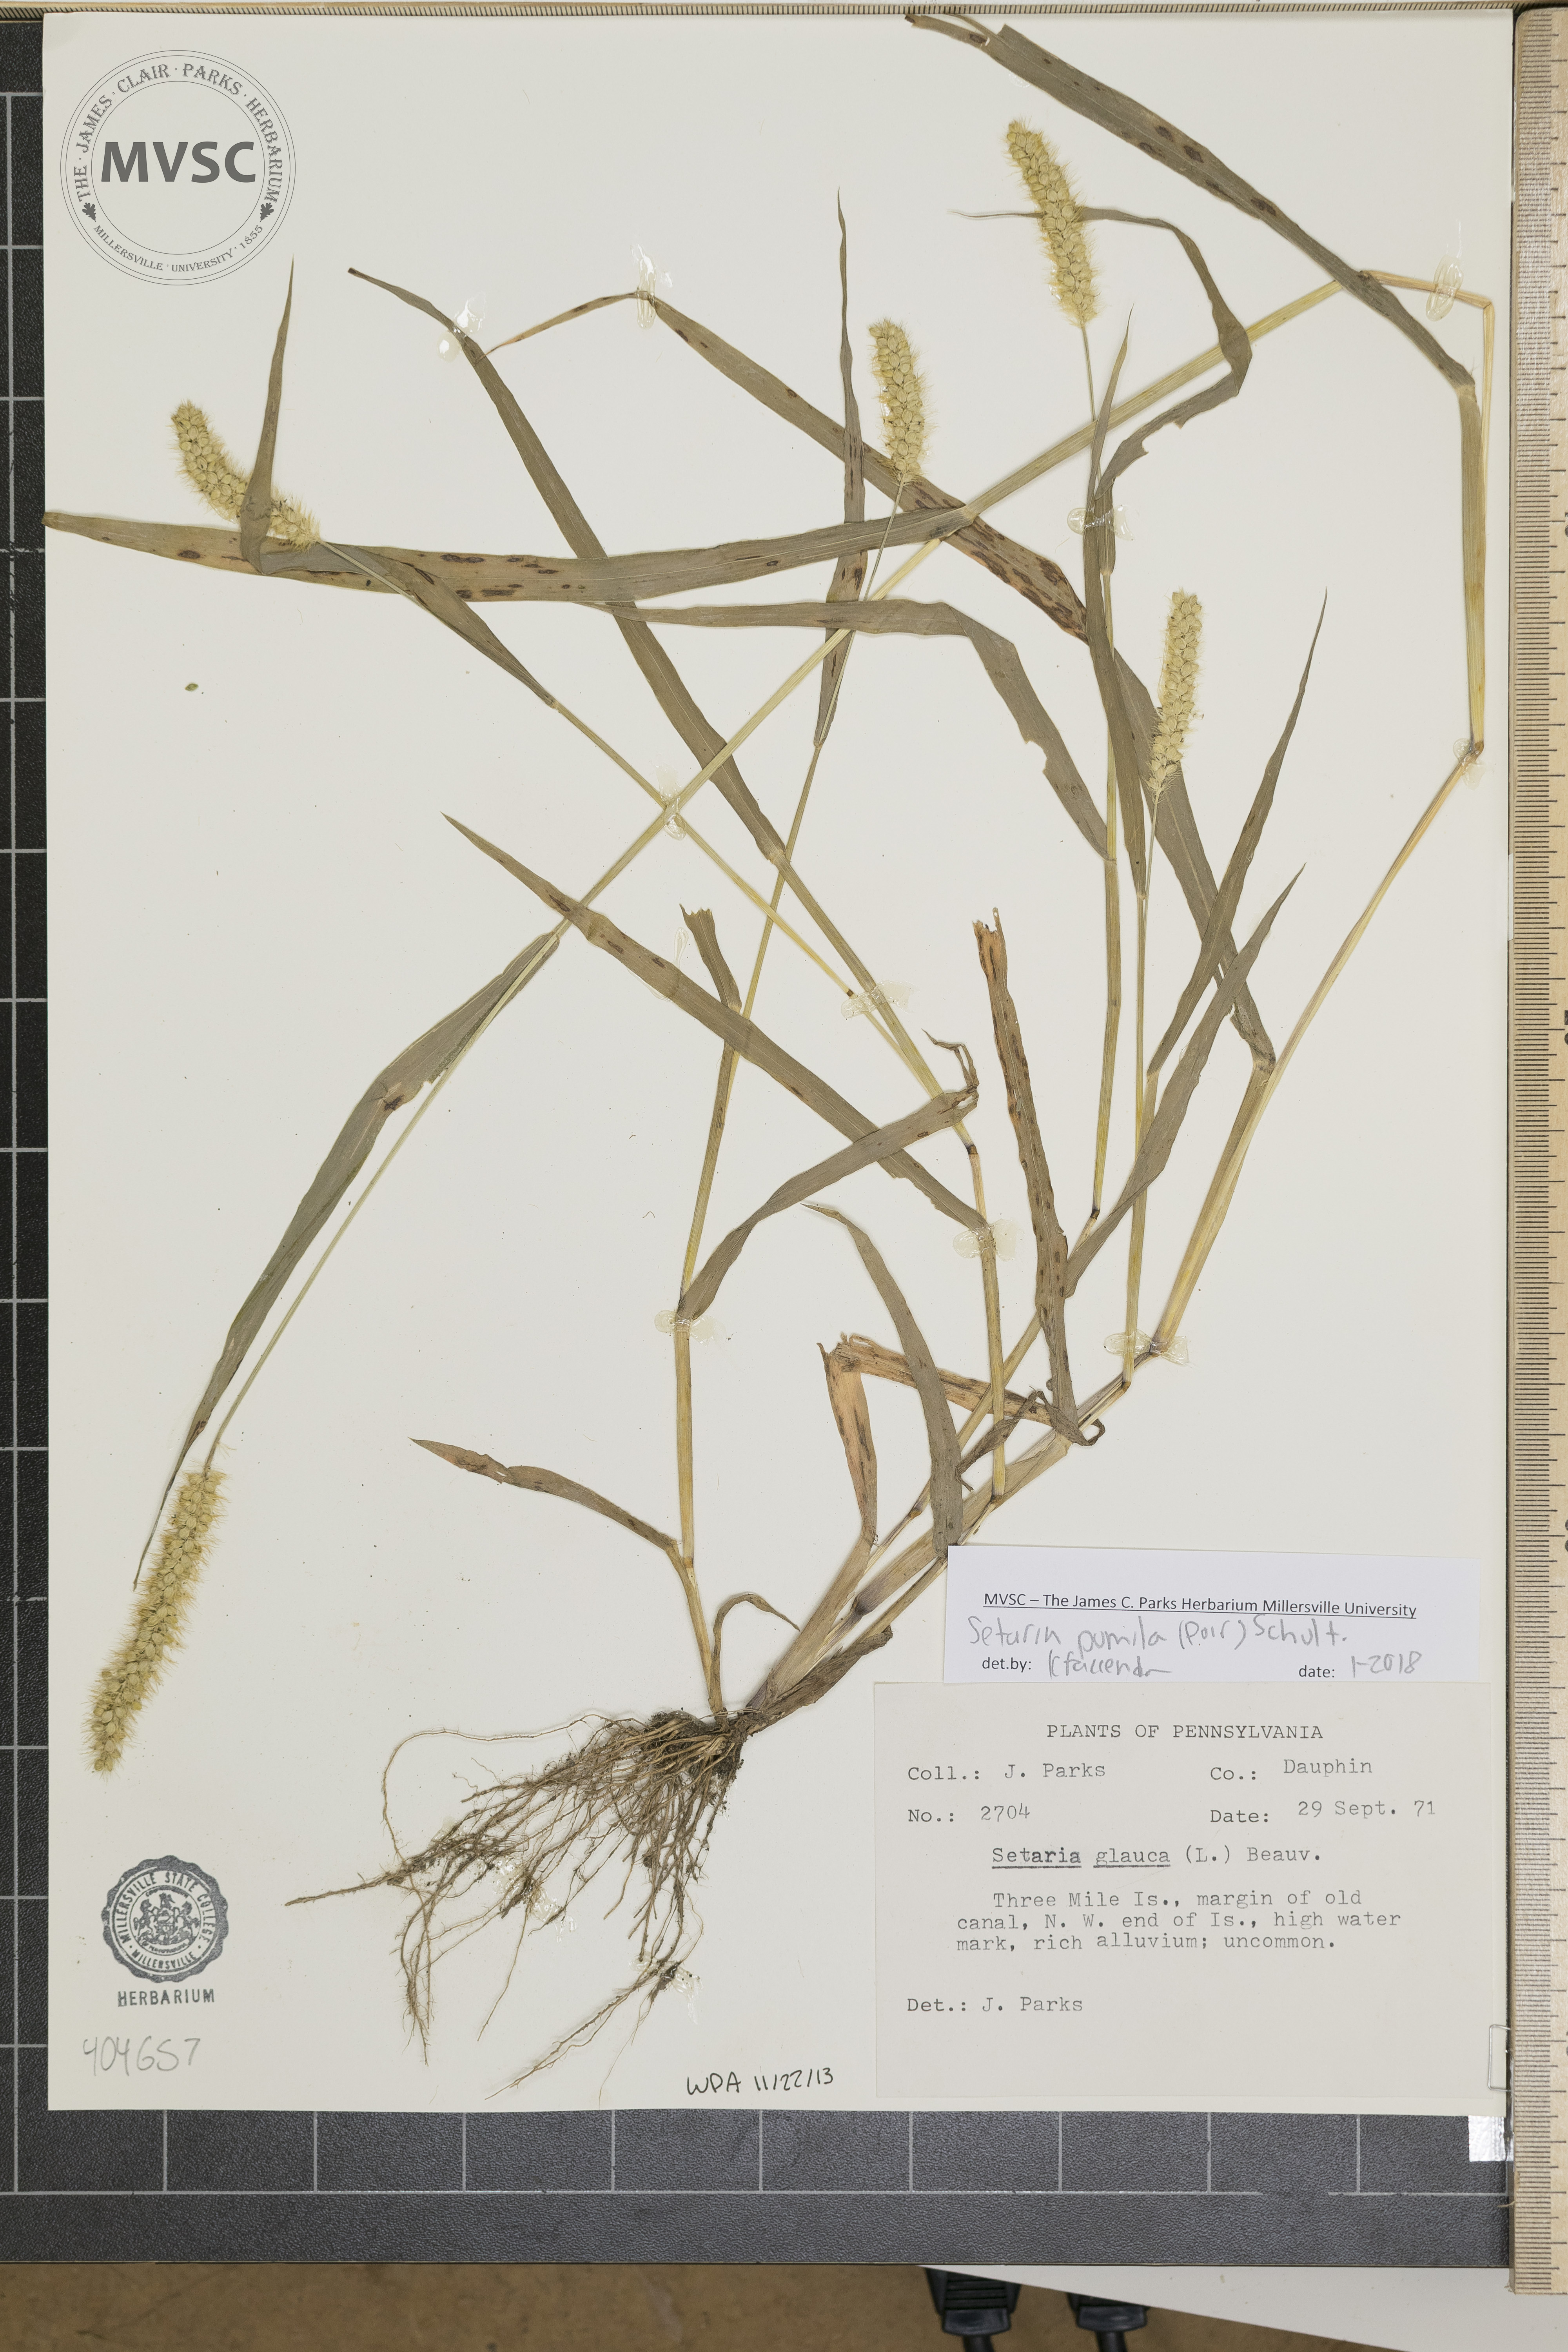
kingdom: Plantae
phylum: Tracheophyta
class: Liliopsida
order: Poales
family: Poaceae
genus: Setaria
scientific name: Setaria pumila
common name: Yellow bristle-grass
